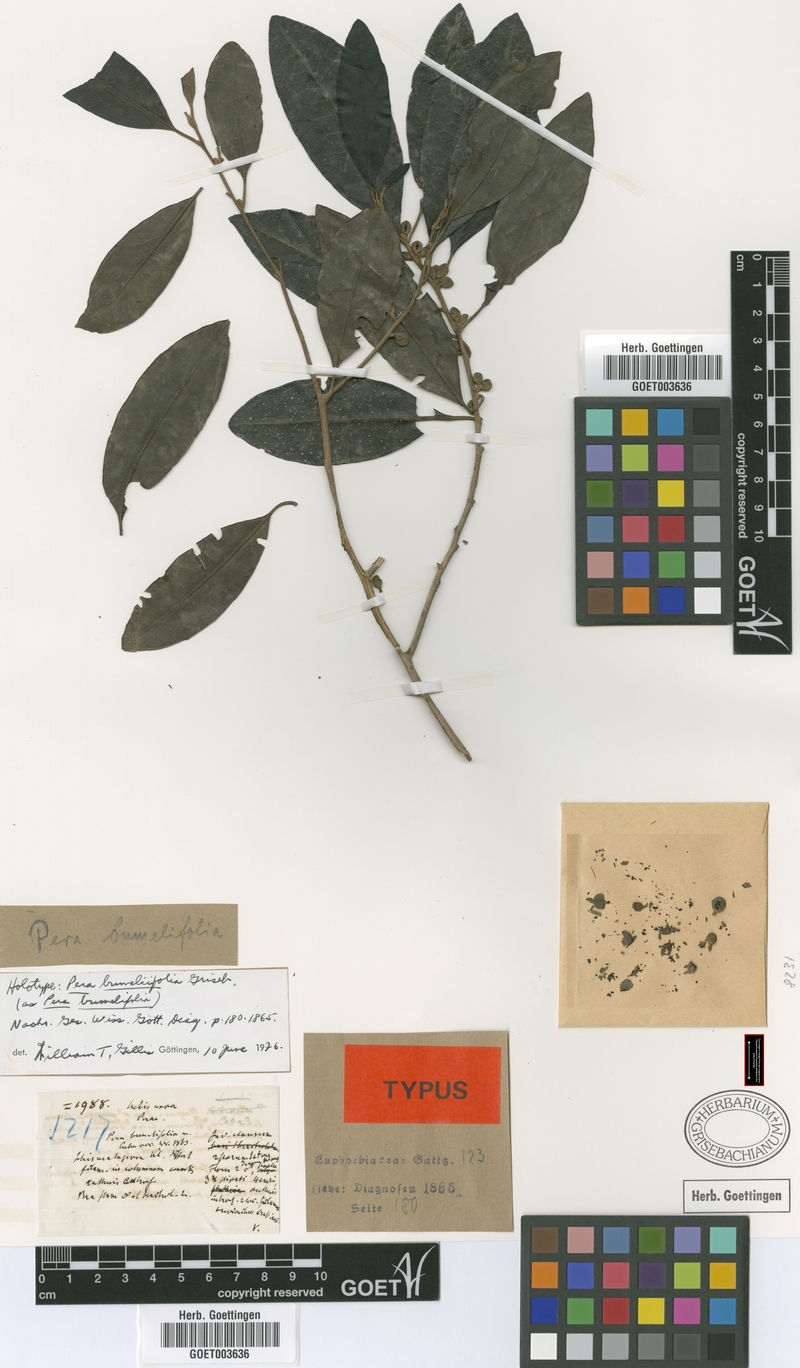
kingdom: Plantae
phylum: Tracheophyta
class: Magnoliopsida
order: Malpighiales
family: Peraceae
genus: Pera
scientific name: Pera bumeliifolia
